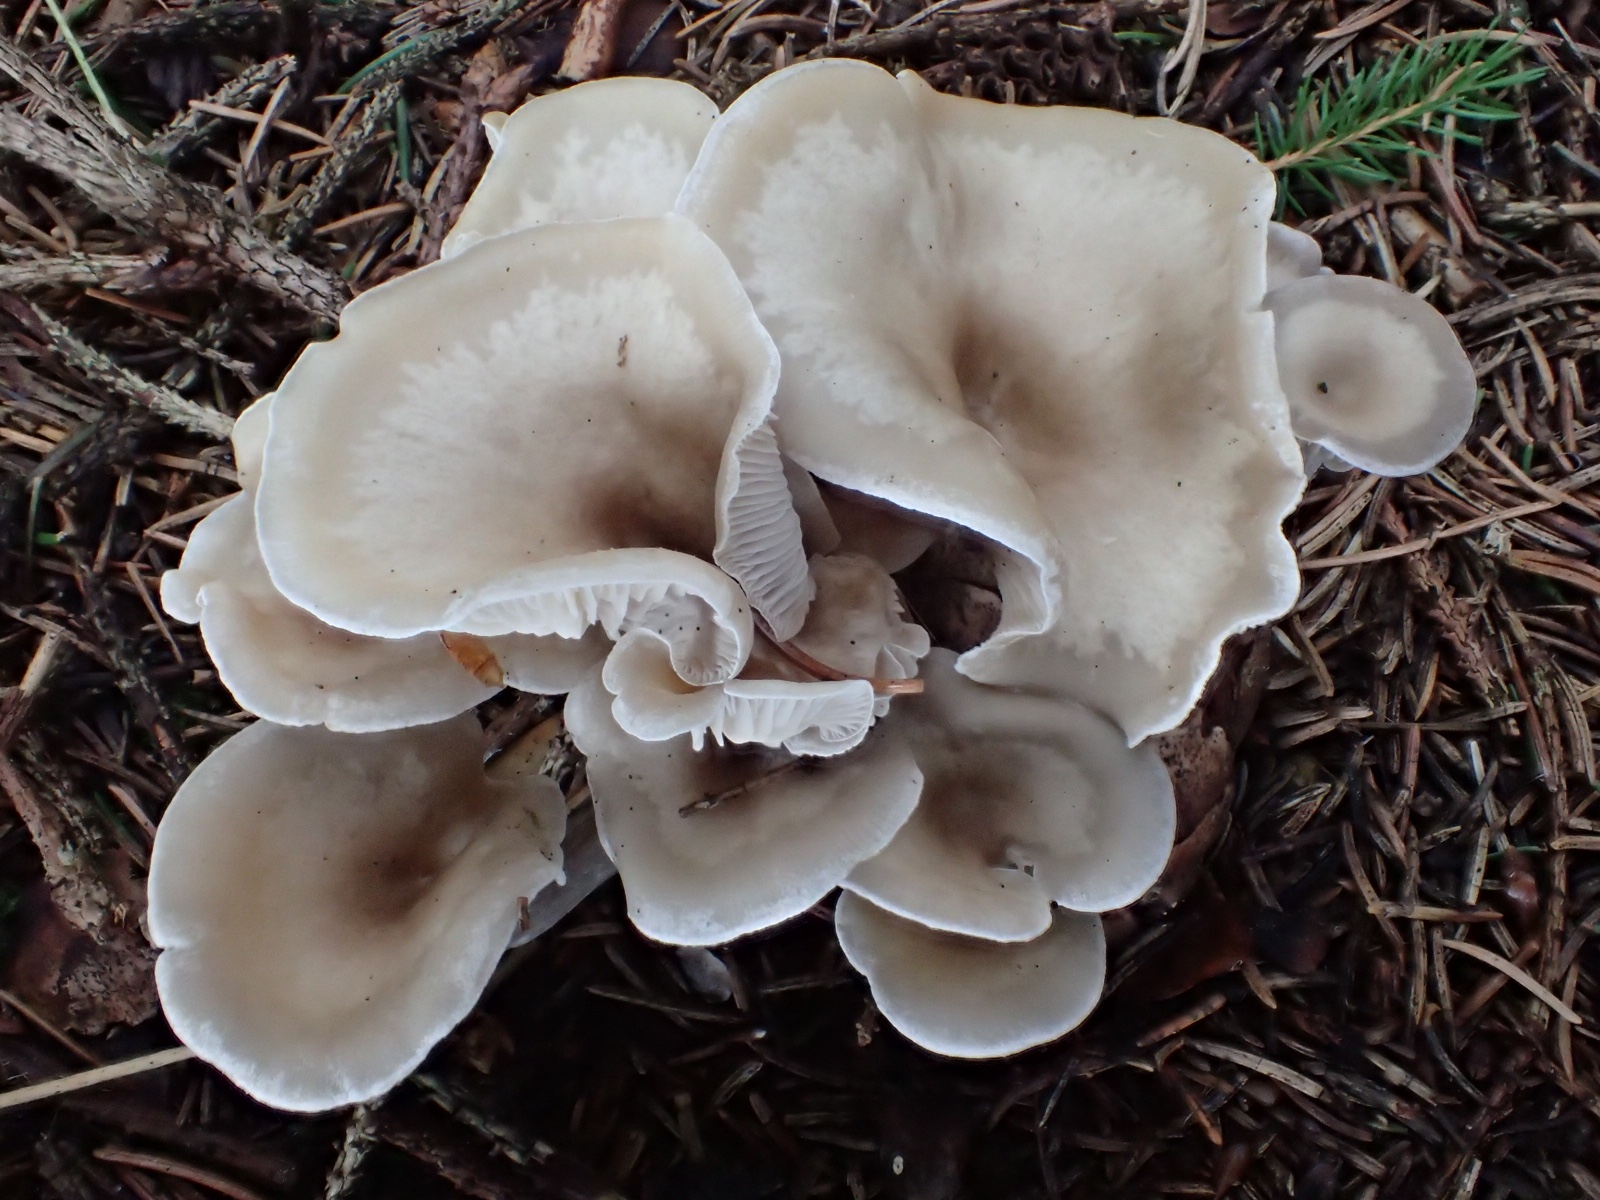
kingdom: Fungi
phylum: Basidiomycota
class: Agaricomycetes
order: Agaricales
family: Tricholomataceae
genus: Clitocybe
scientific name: Clitocybe
